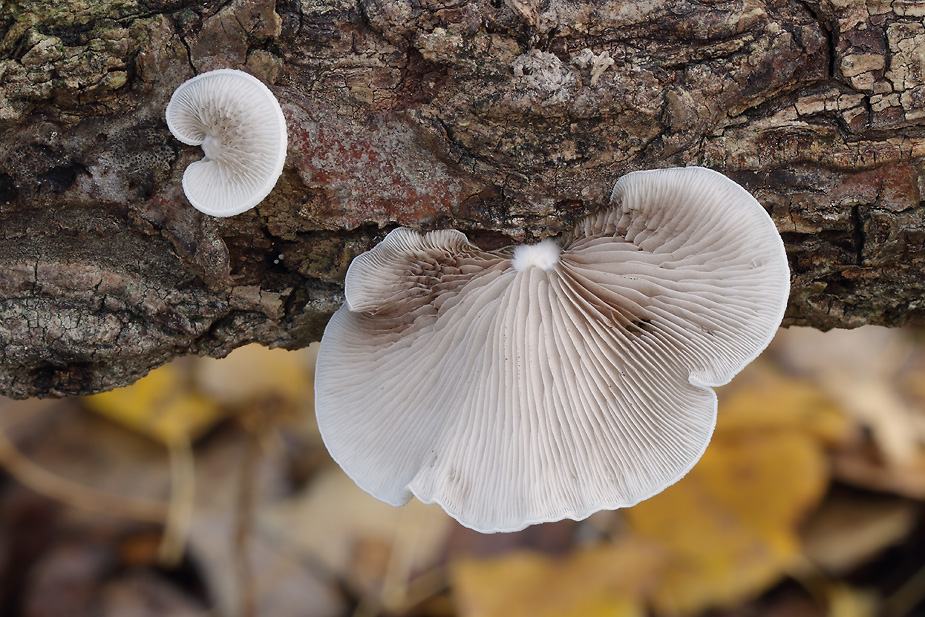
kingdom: Fungi
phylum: Basidiomycota
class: Agaricomycetes
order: Agaricales
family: Crepidotaceae
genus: Crepidotus
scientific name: Crepidotus mollis
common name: blød muslingesvamp
